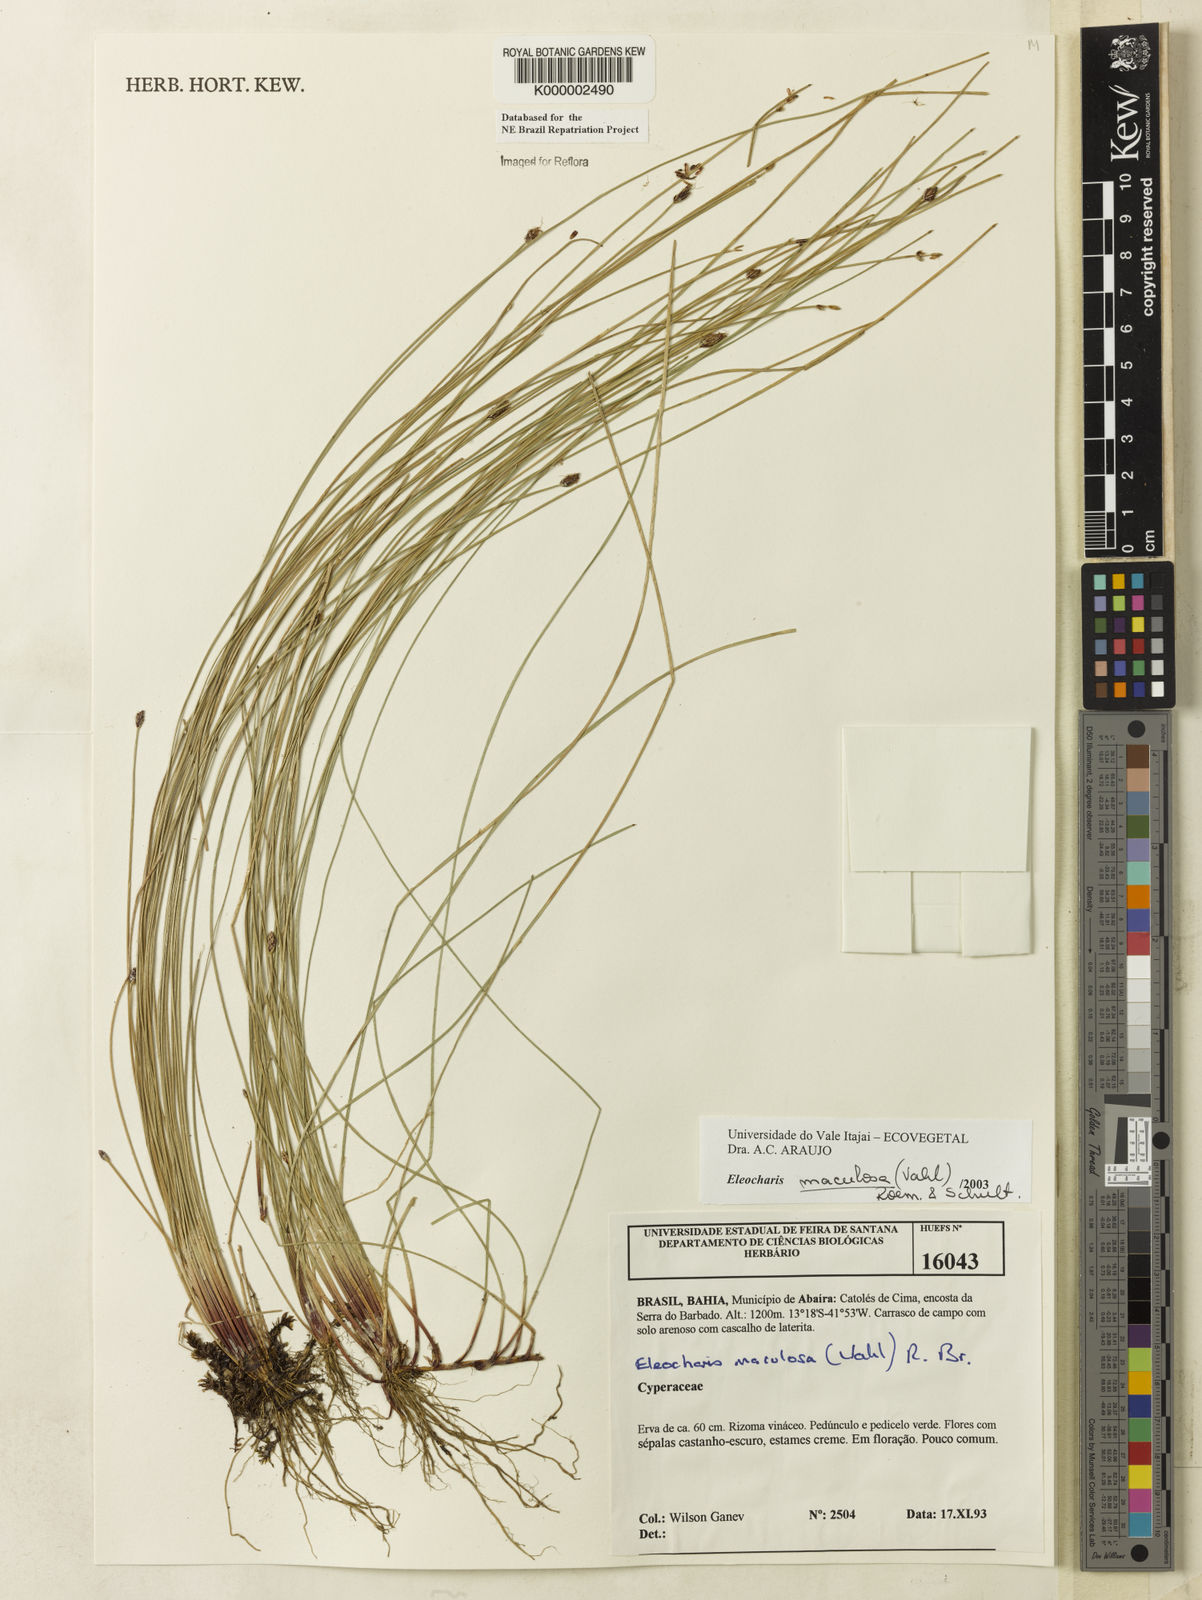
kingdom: Plantae
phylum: Tracheophyta
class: Liliopsida
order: Poales
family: Cyperaceae
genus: Eleocharis
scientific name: Eleocharis maculosa
